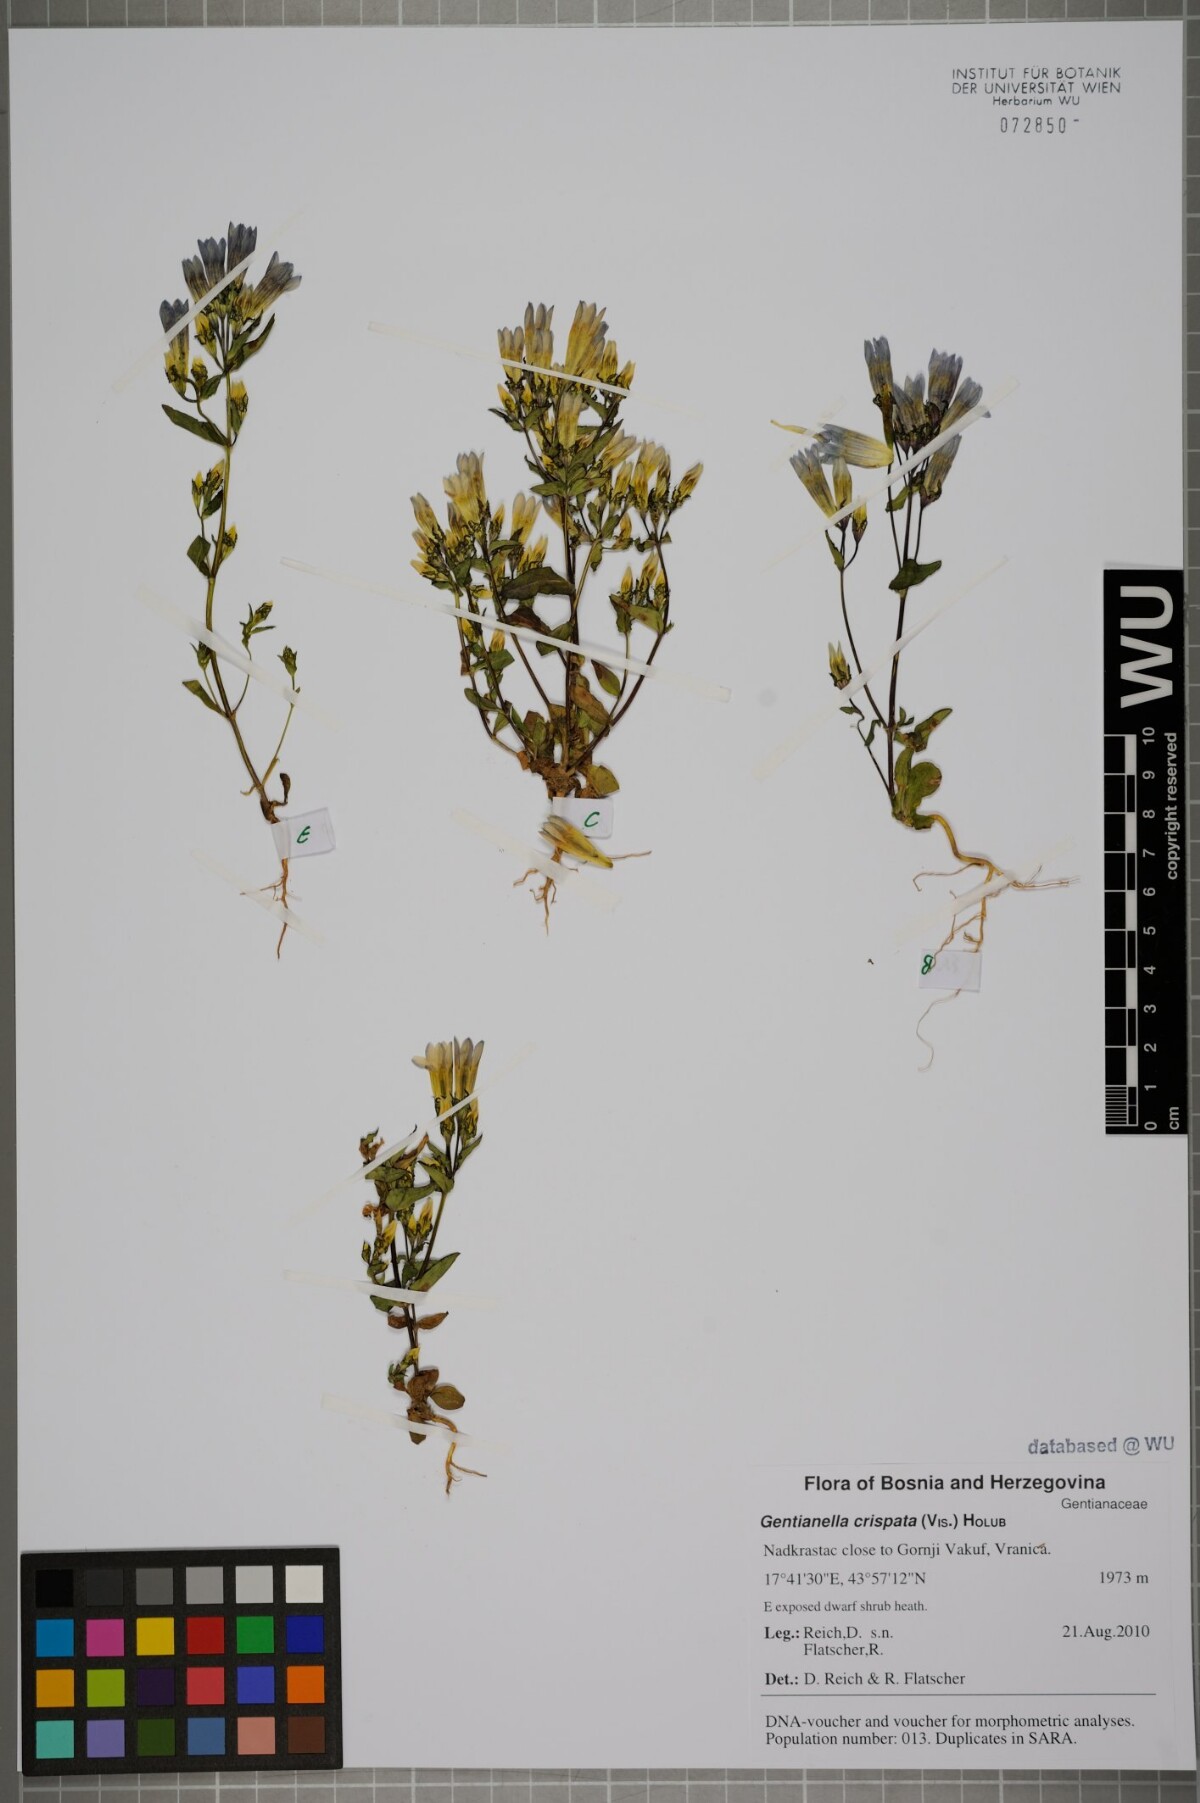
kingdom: Plantae
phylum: Tracheophyta
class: Magnoliopsida
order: Gentianales
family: Gentianaceae
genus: Gentianella
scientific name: Gentianella crispata
